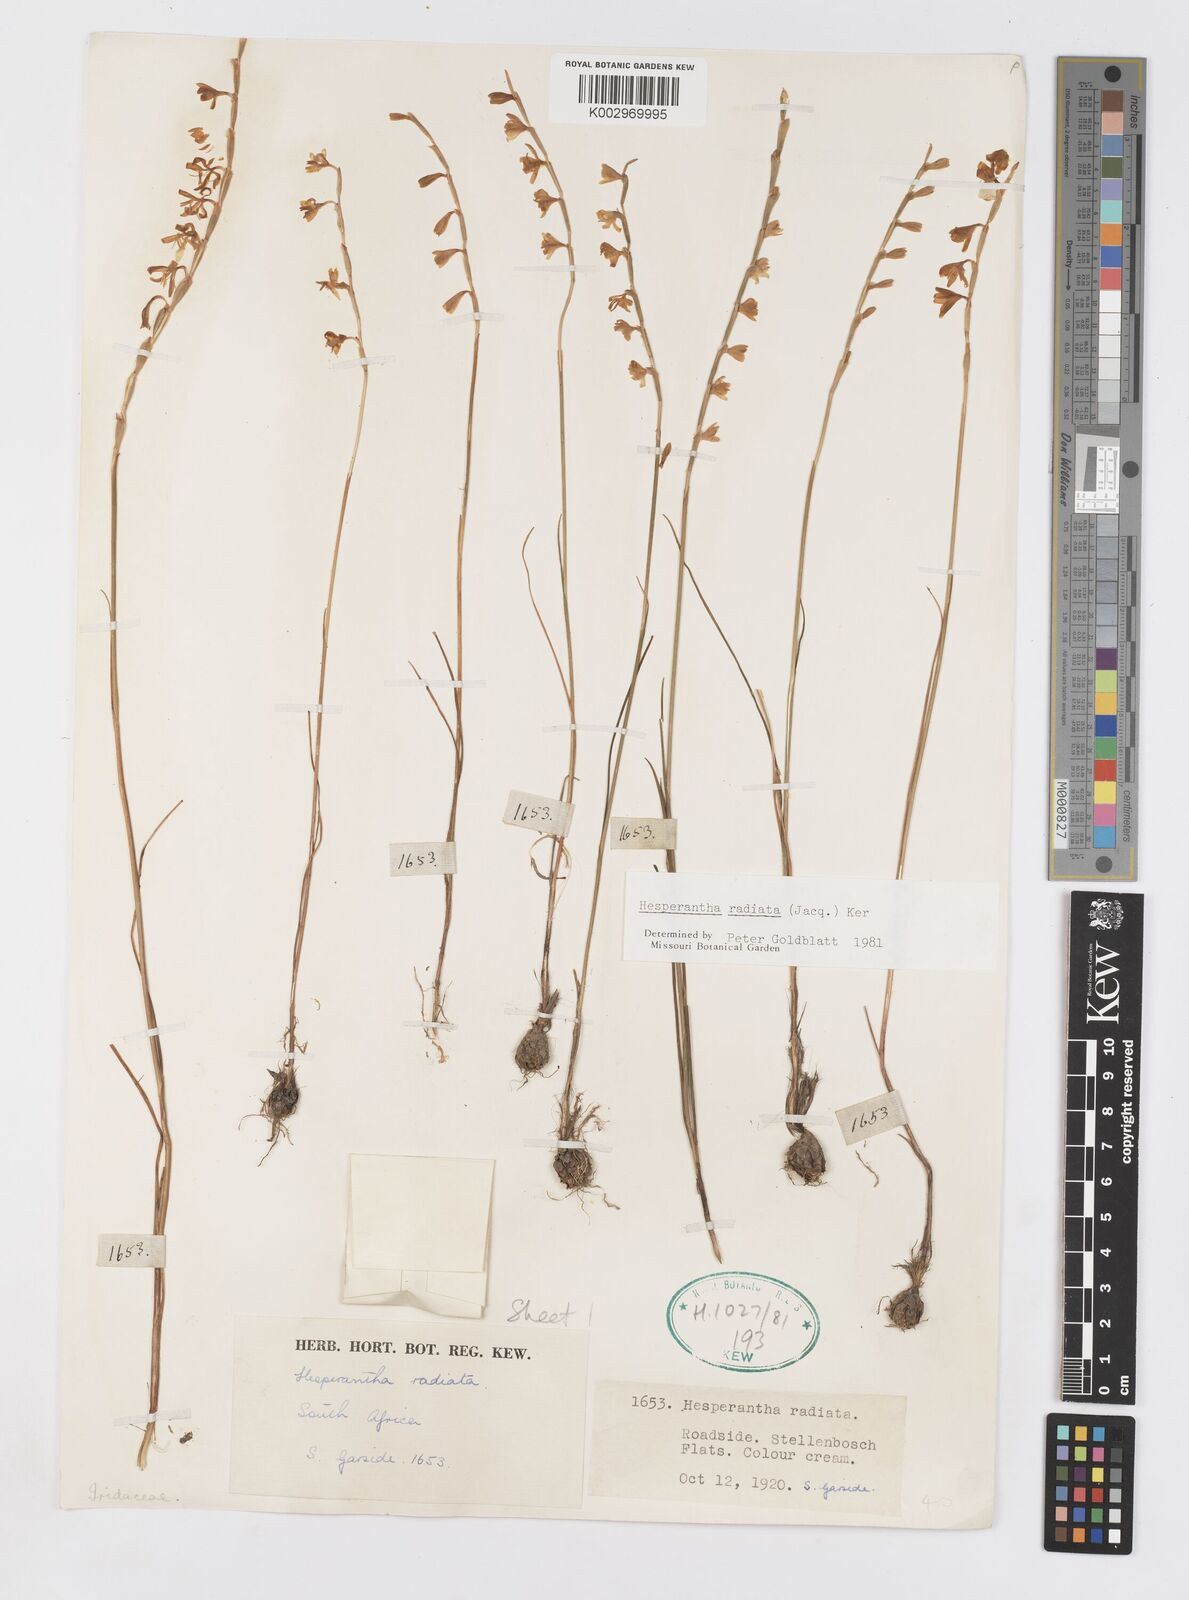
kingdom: Plantae
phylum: Tracheophyta
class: Liliopsida
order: Asparagales
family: Iridaceae
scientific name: Iridaceae
